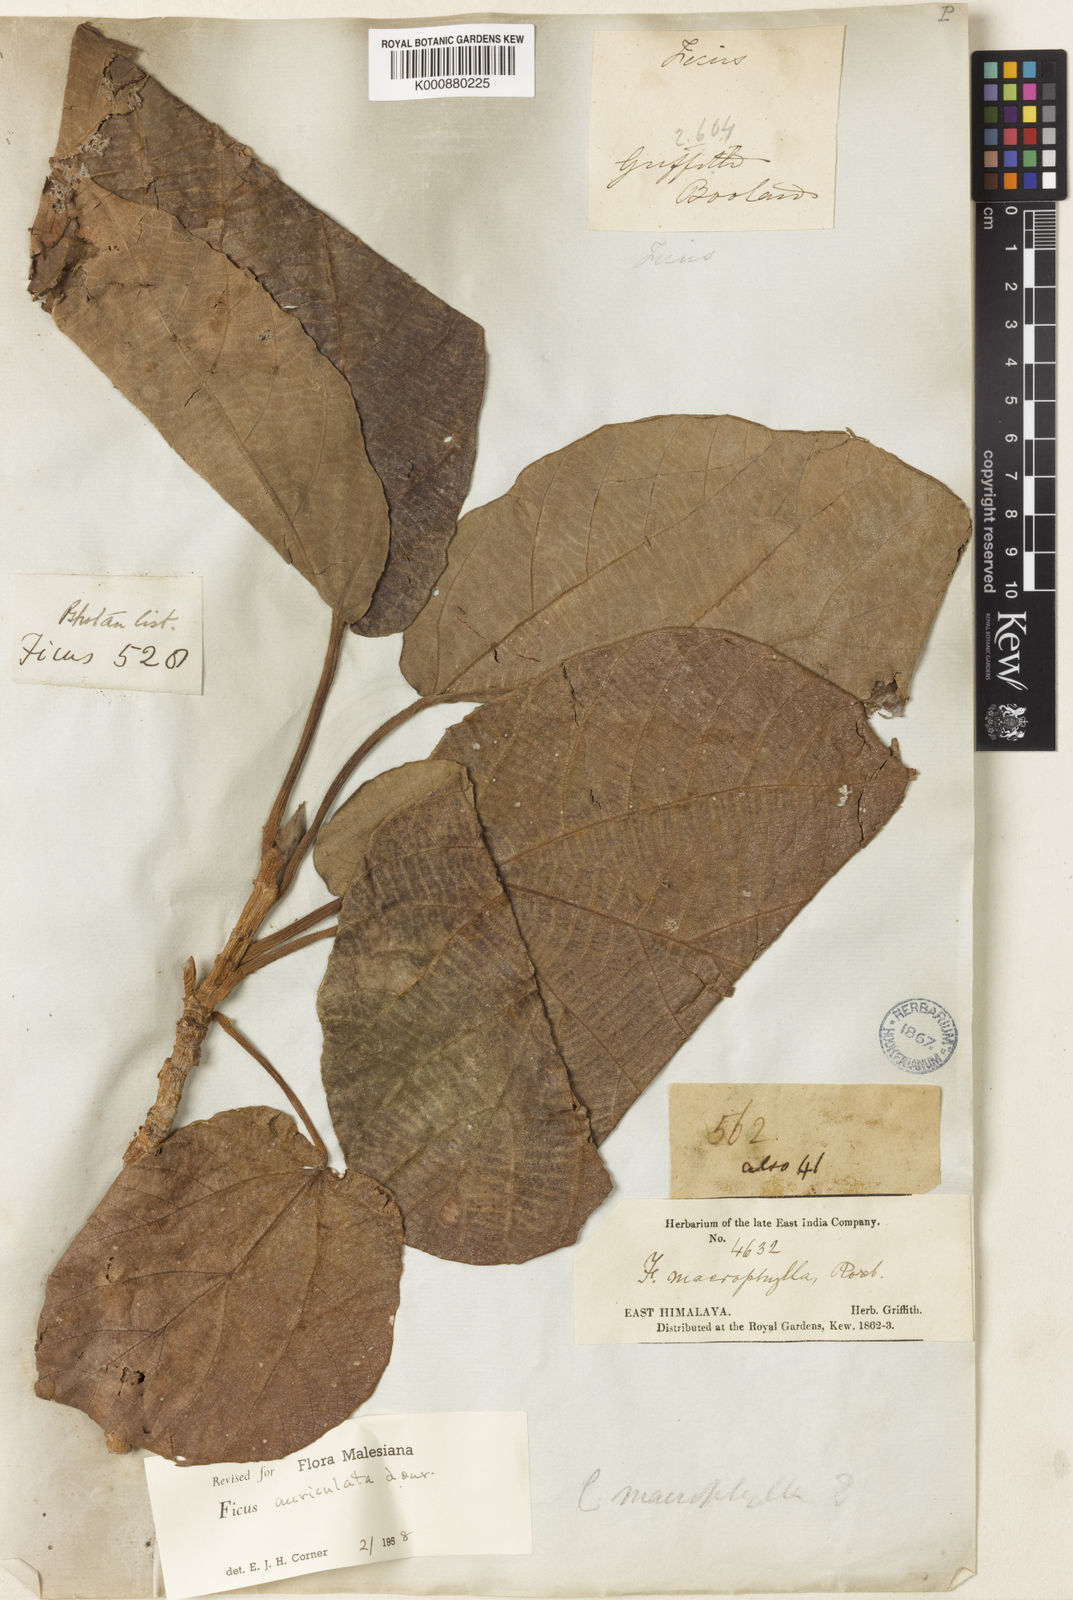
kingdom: Plantae
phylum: Tracheophyta
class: Magnoliopsida
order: Rosales
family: Moraceae
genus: Ficus
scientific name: Ficus auriculata
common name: Roxburgh fig
